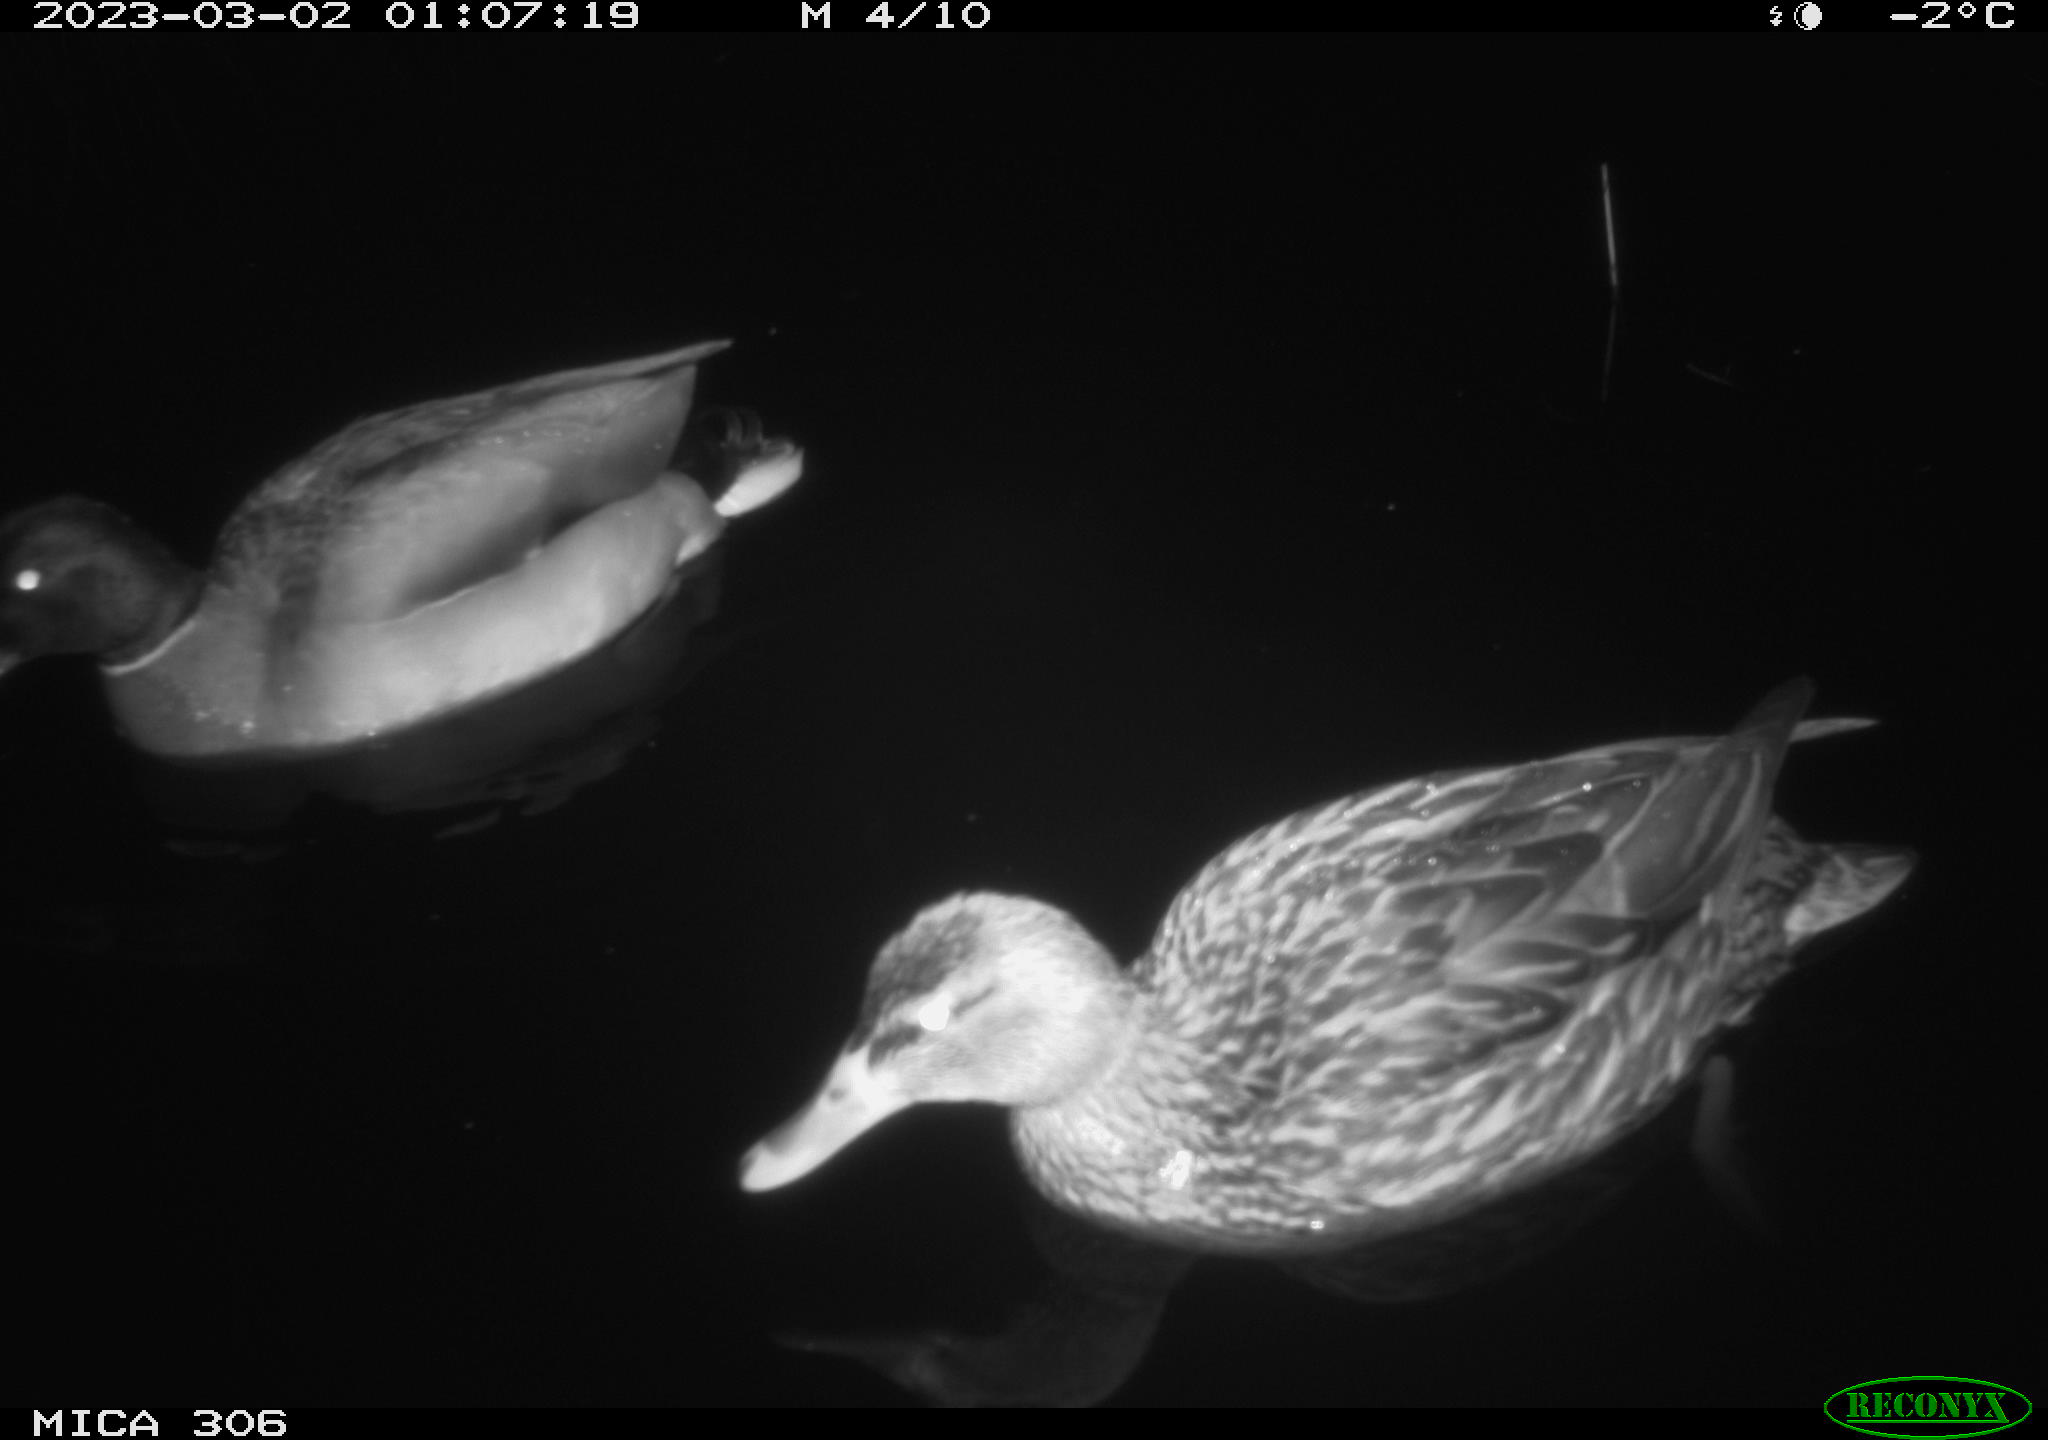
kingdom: Animalia
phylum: Chordata
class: Aves
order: Anseriformes
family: Anatidae
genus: Anas
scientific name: Anas
